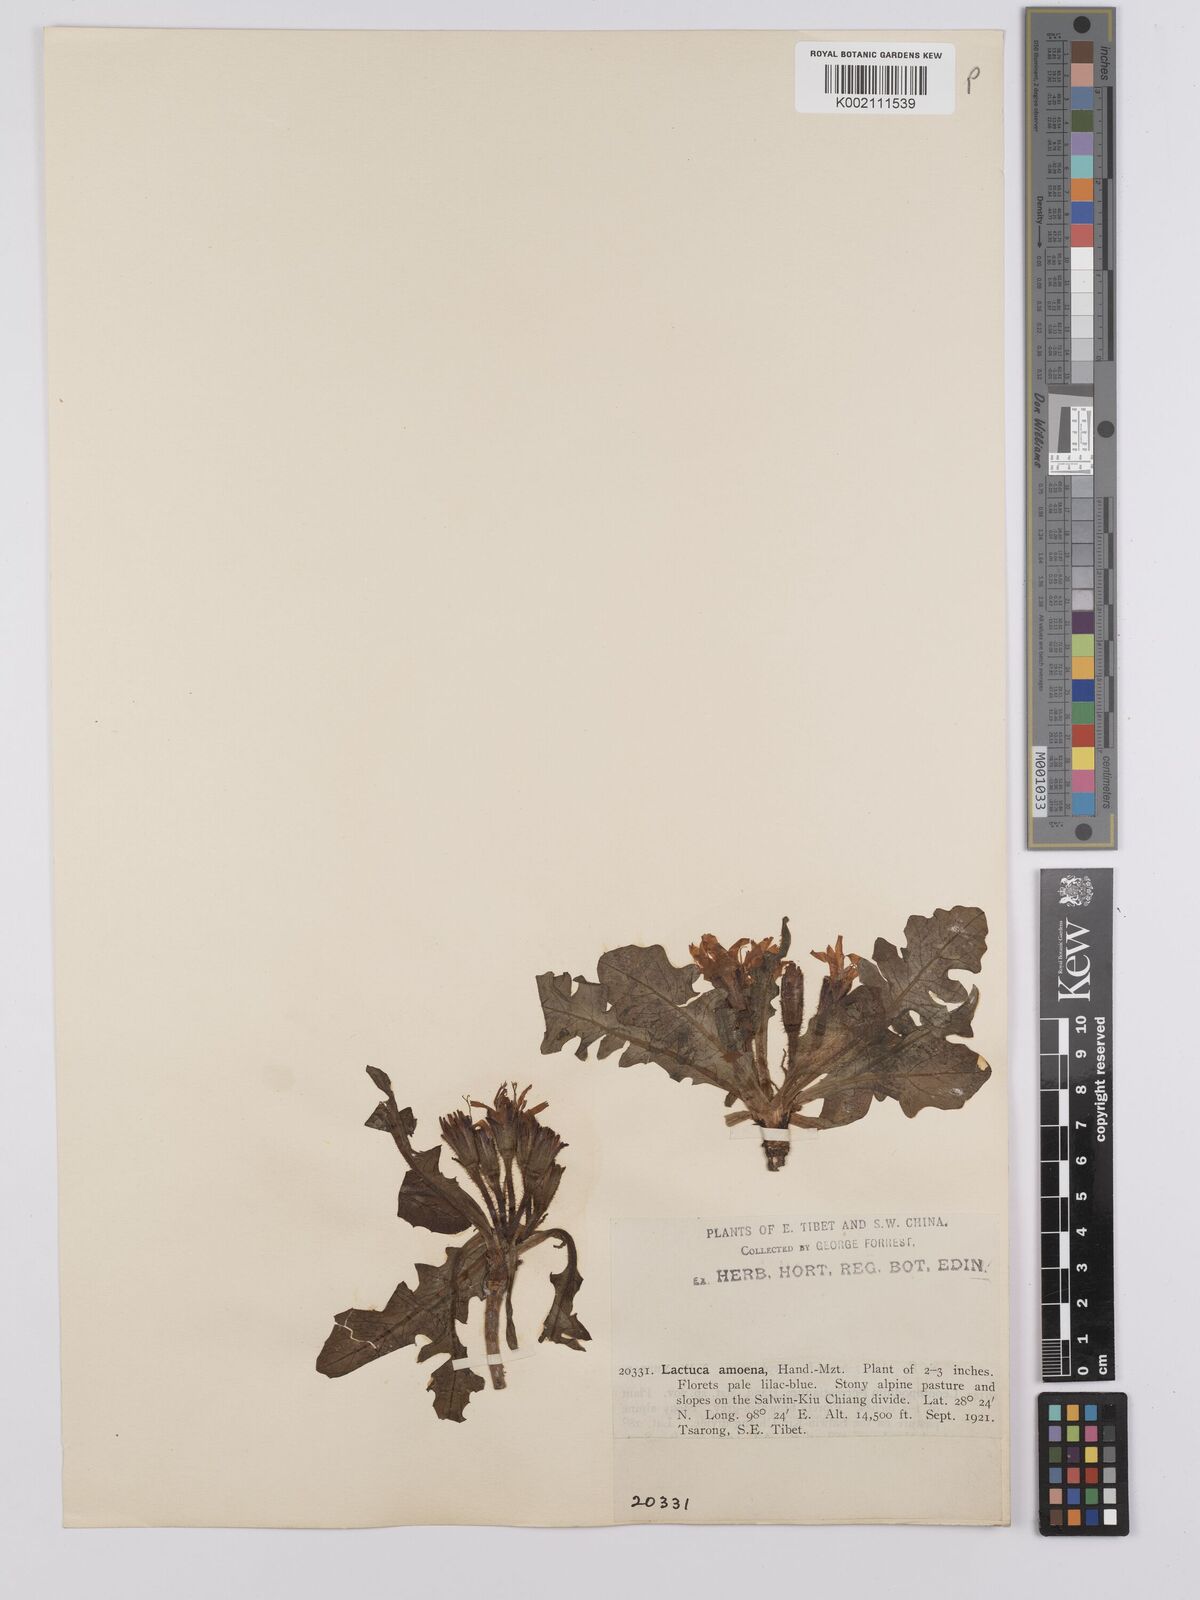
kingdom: Plantae
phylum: Tracheophyta
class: Magnoliopsida
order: Asterales
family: Asteraceae
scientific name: Asteraceae
